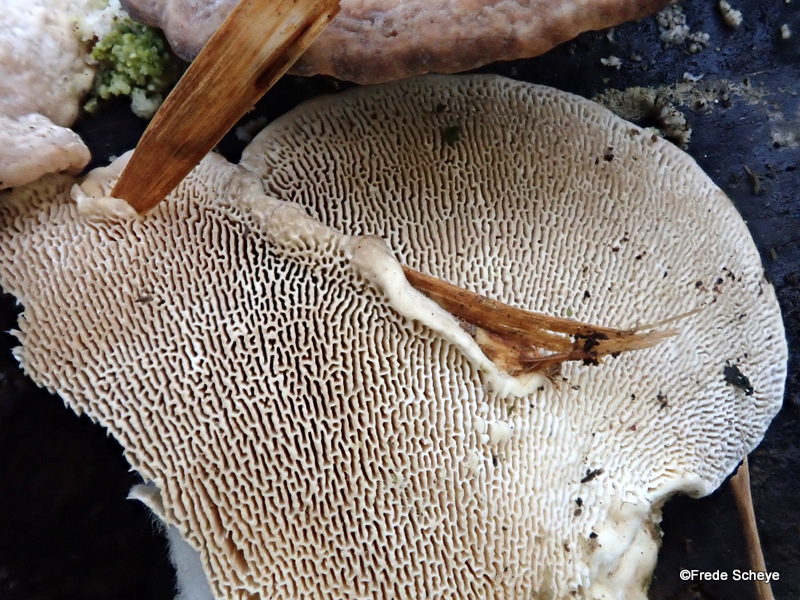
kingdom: Fungi
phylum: Basidiomycota
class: Agaricomycetes
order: Polyporales
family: Polyporaceae
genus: Trametes
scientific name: Trametes gibbosa
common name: puklet læderporesvamp
